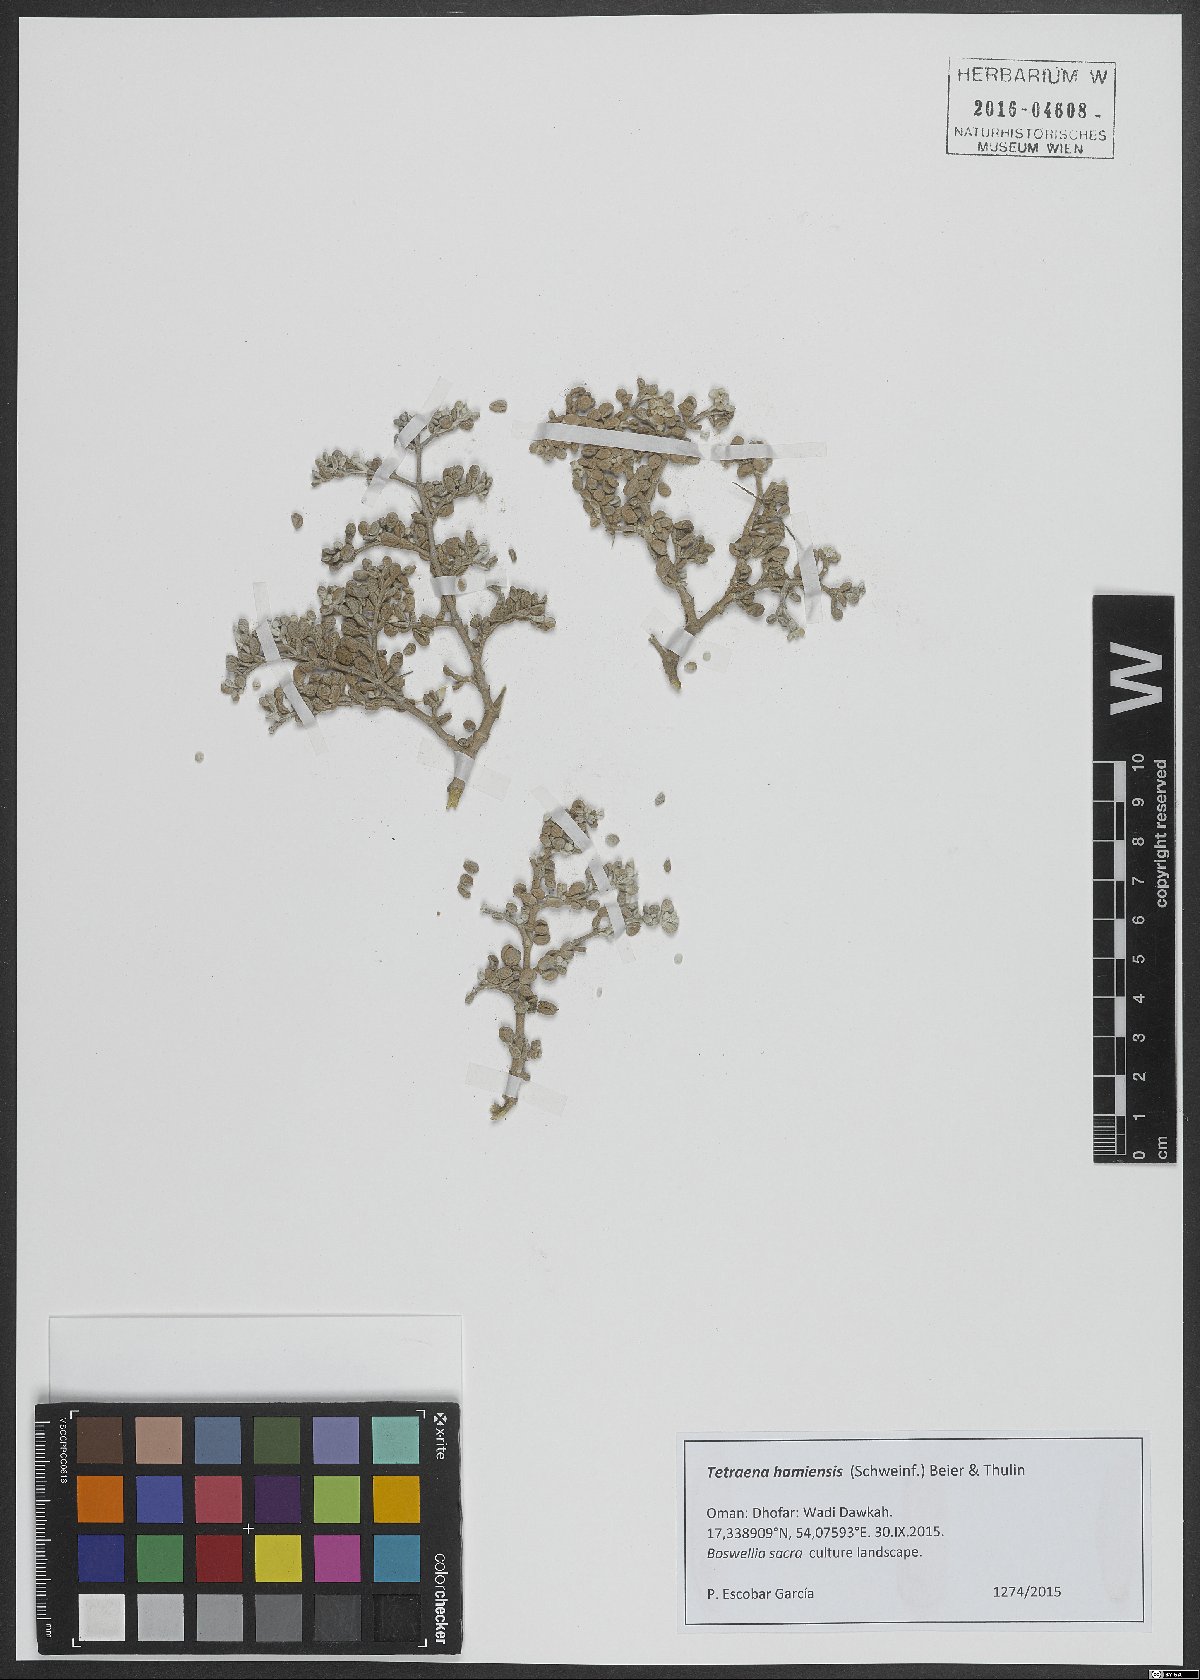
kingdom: Plantae
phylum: Tracheophyta
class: Magnoliopsida
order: Zygophyllales
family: Zygophyllaceae
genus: Tetraena
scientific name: Tetraena hamiensis
